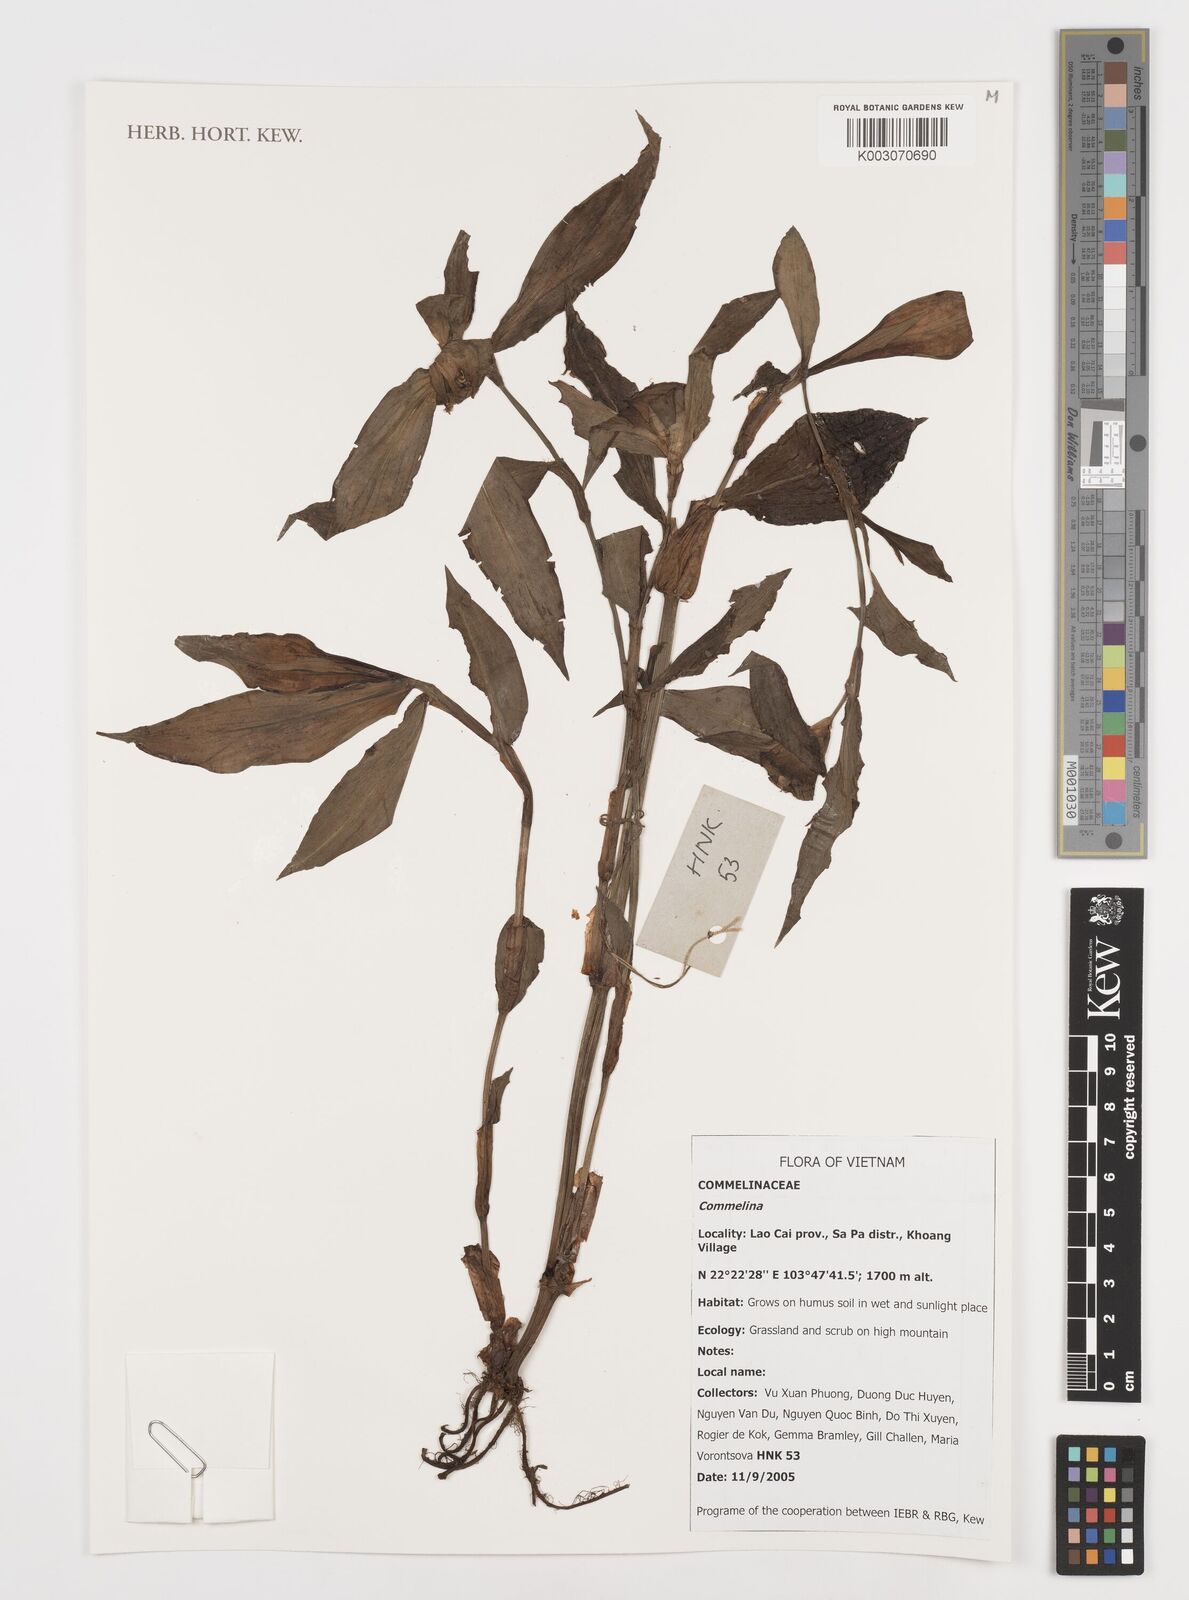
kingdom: Plantae
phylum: Tracheophyta
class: Liliopsida
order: Commelinales
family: Commelinaceae
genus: Commelina
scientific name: Commelina
